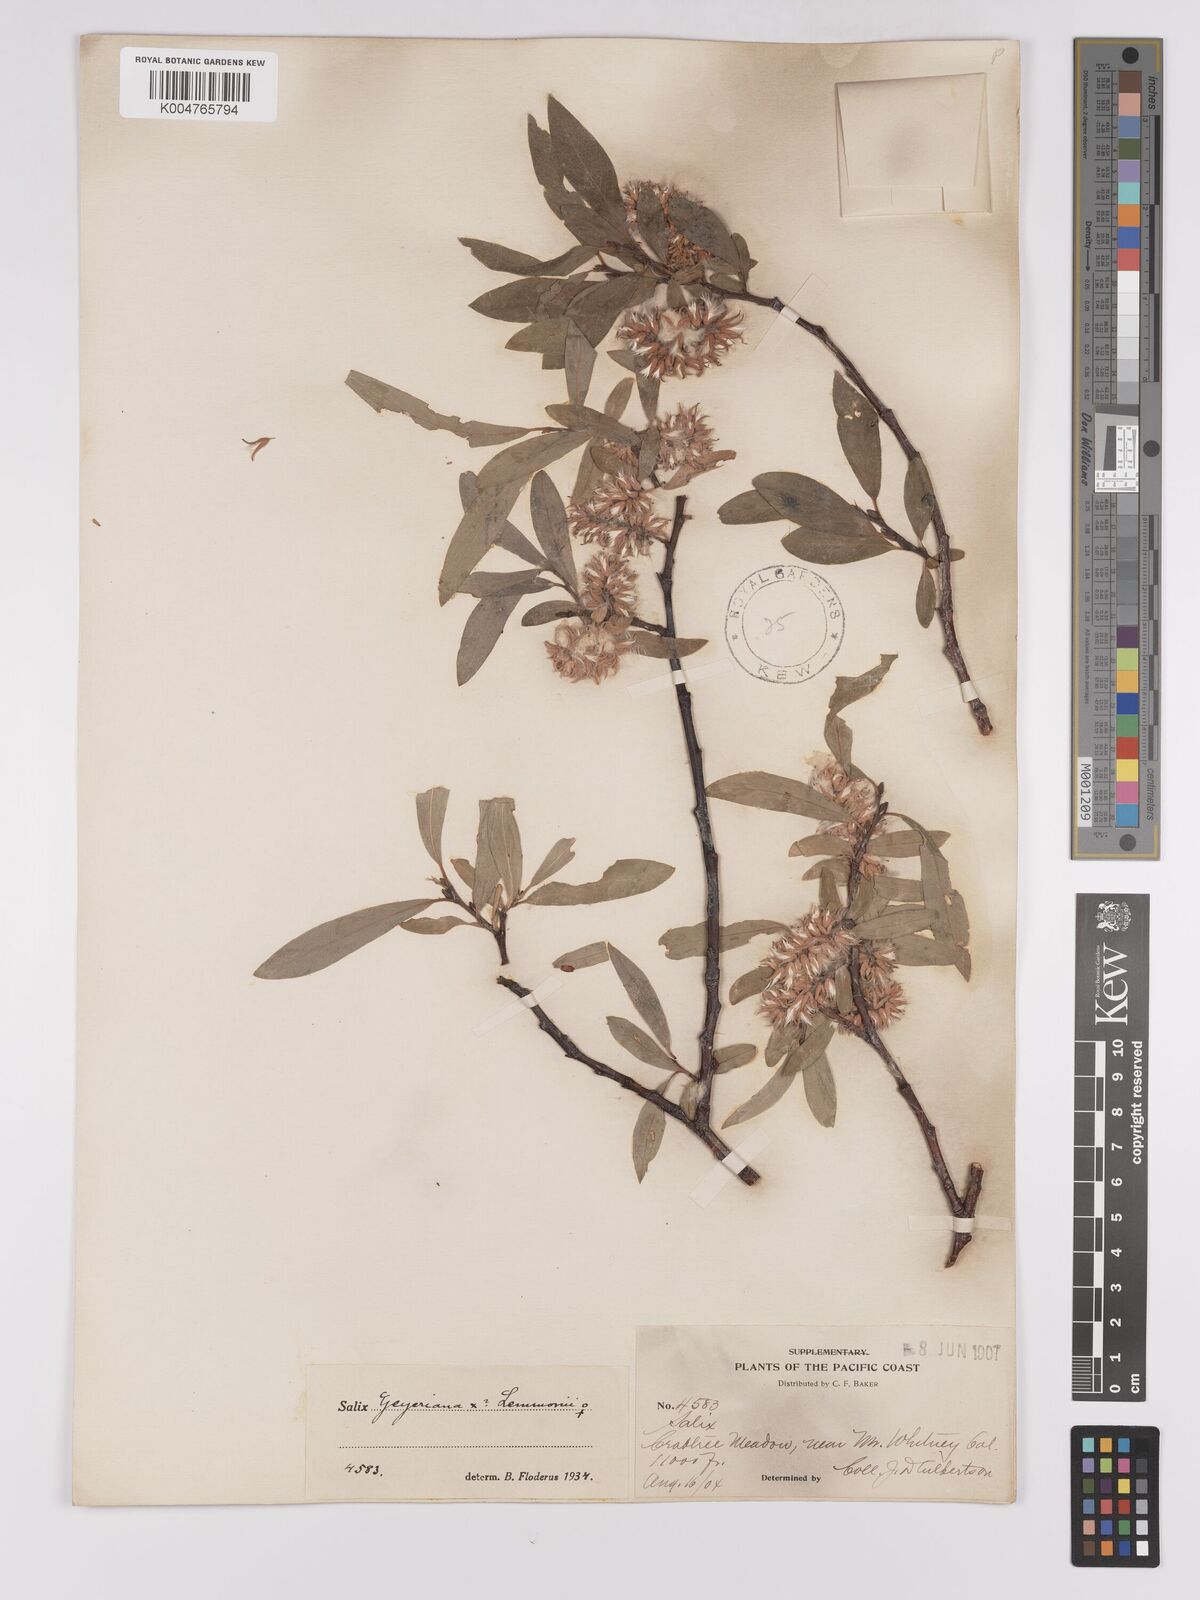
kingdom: Plantae
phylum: Tracheophyta
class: Magnoliopsida
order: Malpighiales
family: Salicaceae
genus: Salix
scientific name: Salix geyeriana
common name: Geyer's willow
